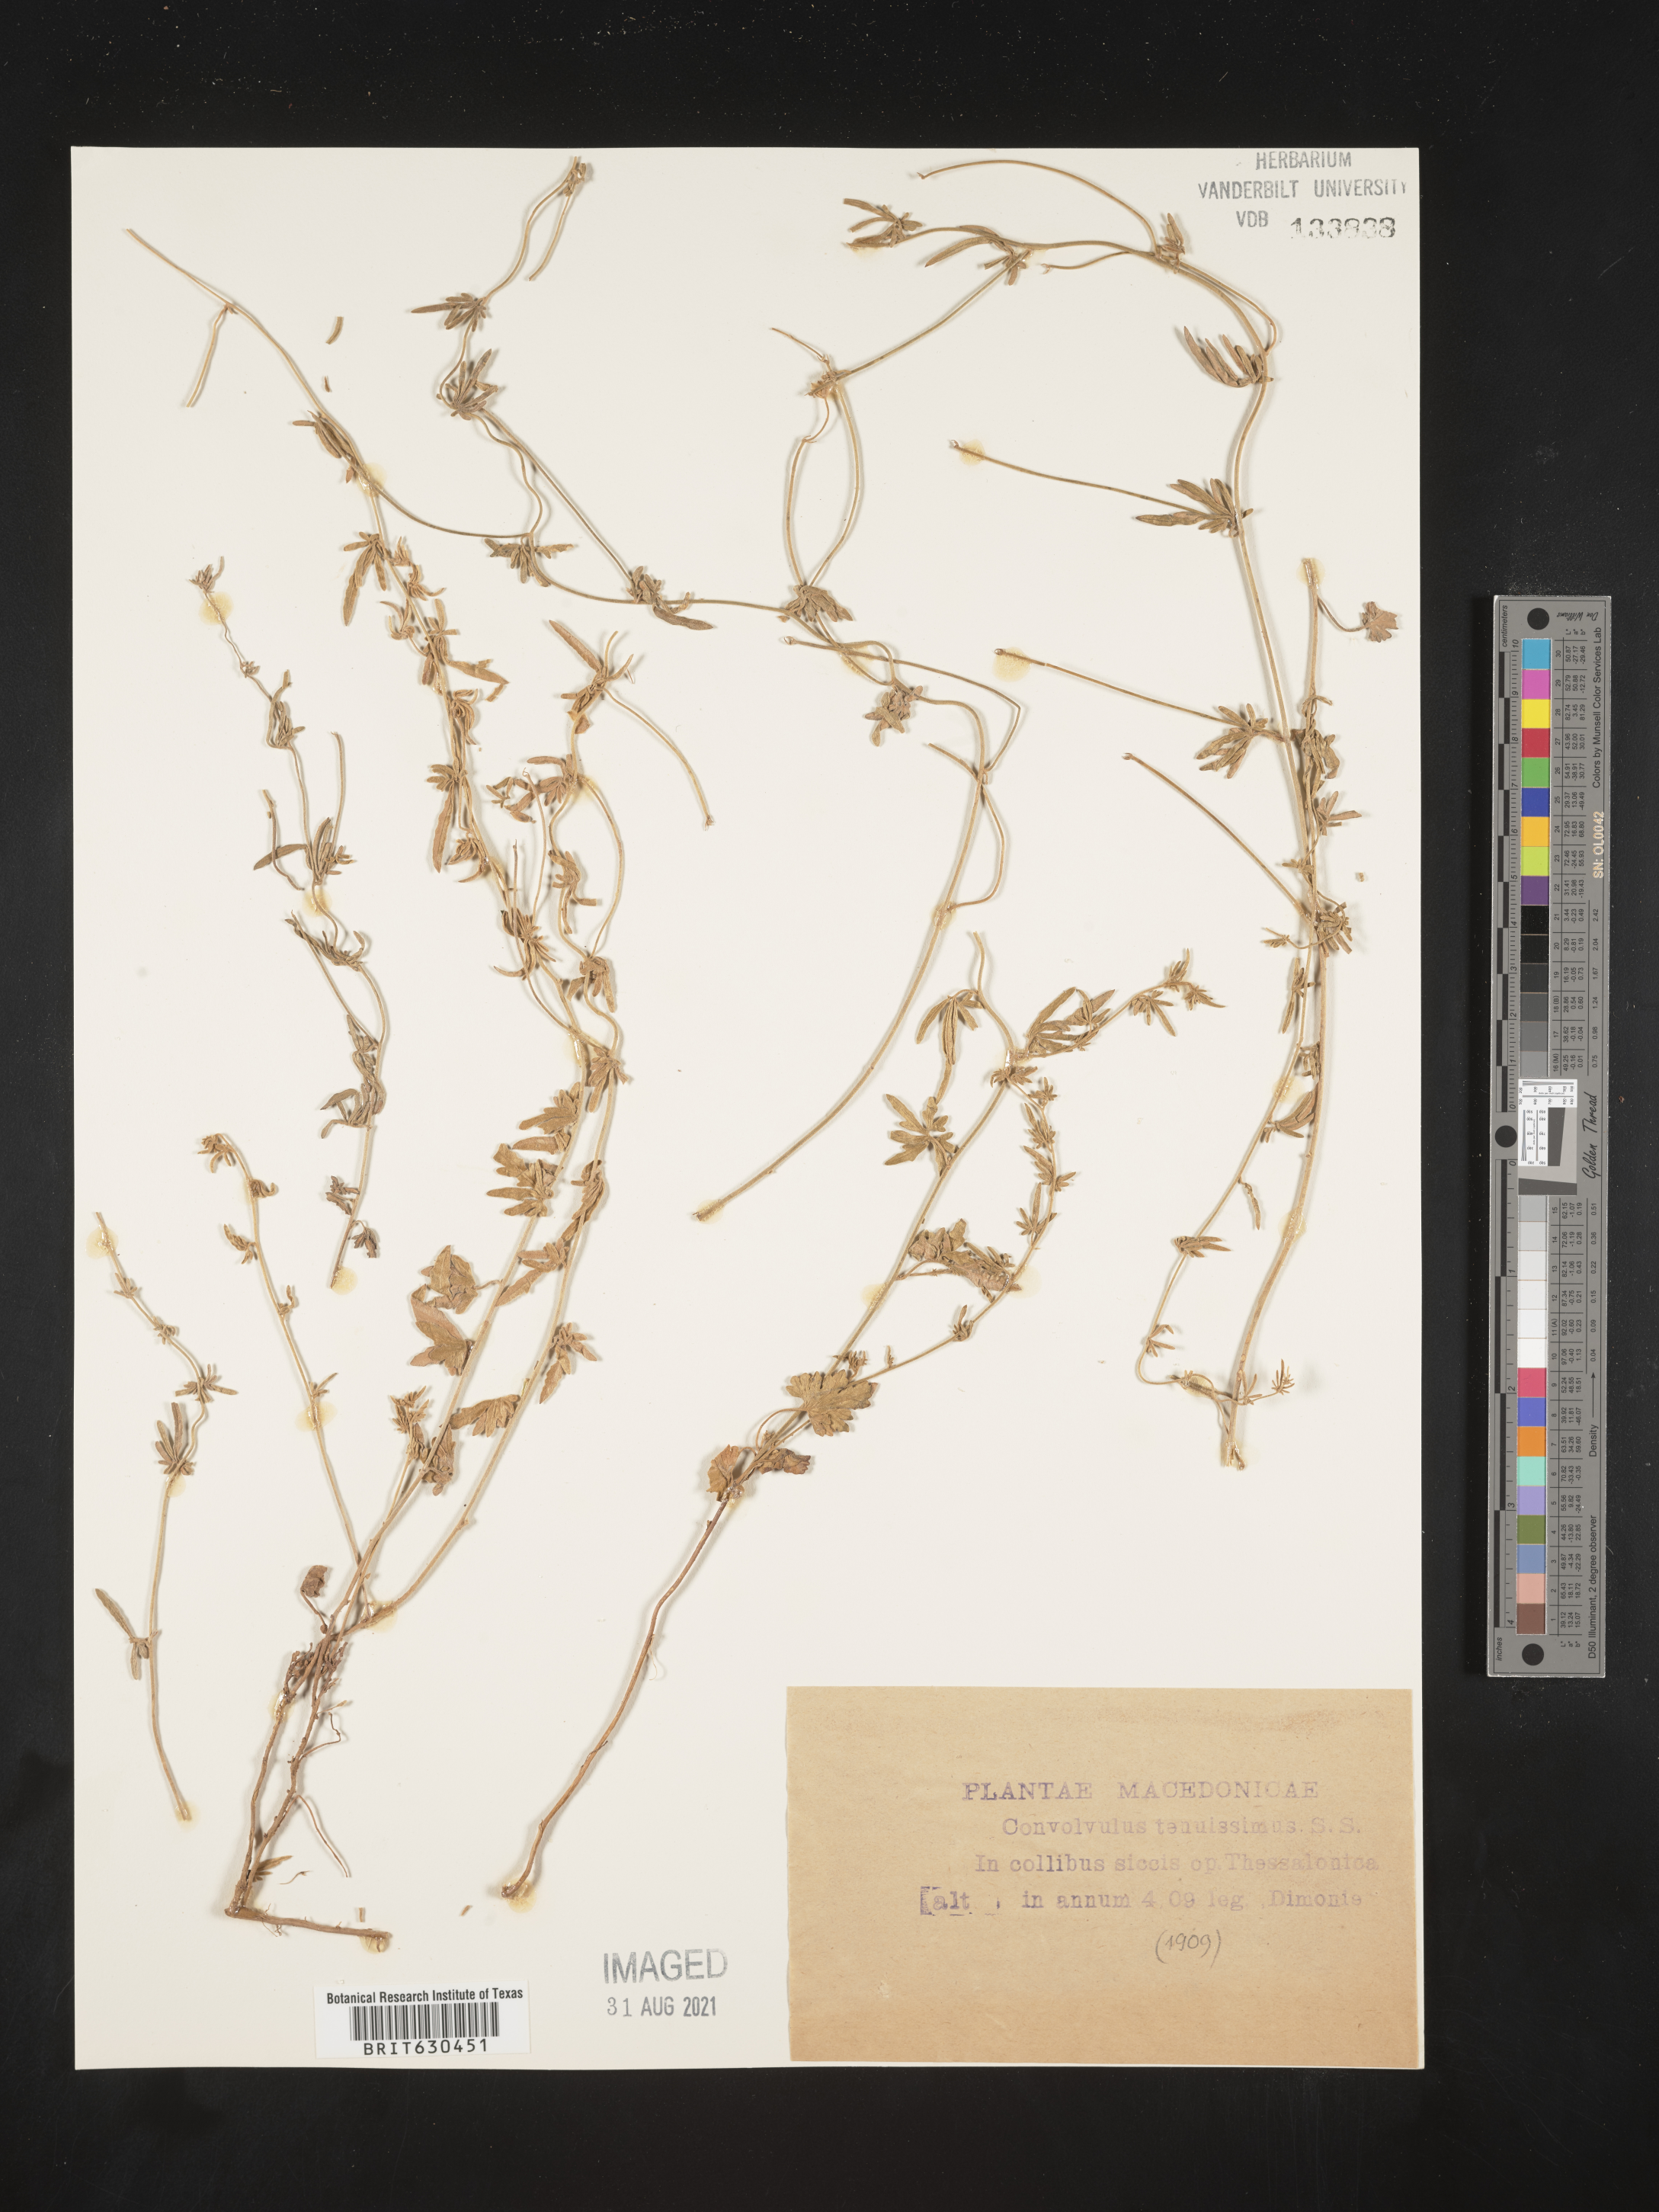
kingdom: Plantae
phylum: Tracheophyta
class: Magnoliopsida
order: Solanales
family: Convolvulaceae
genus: Convolvulus
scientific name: Convolvulus elegantissimus
